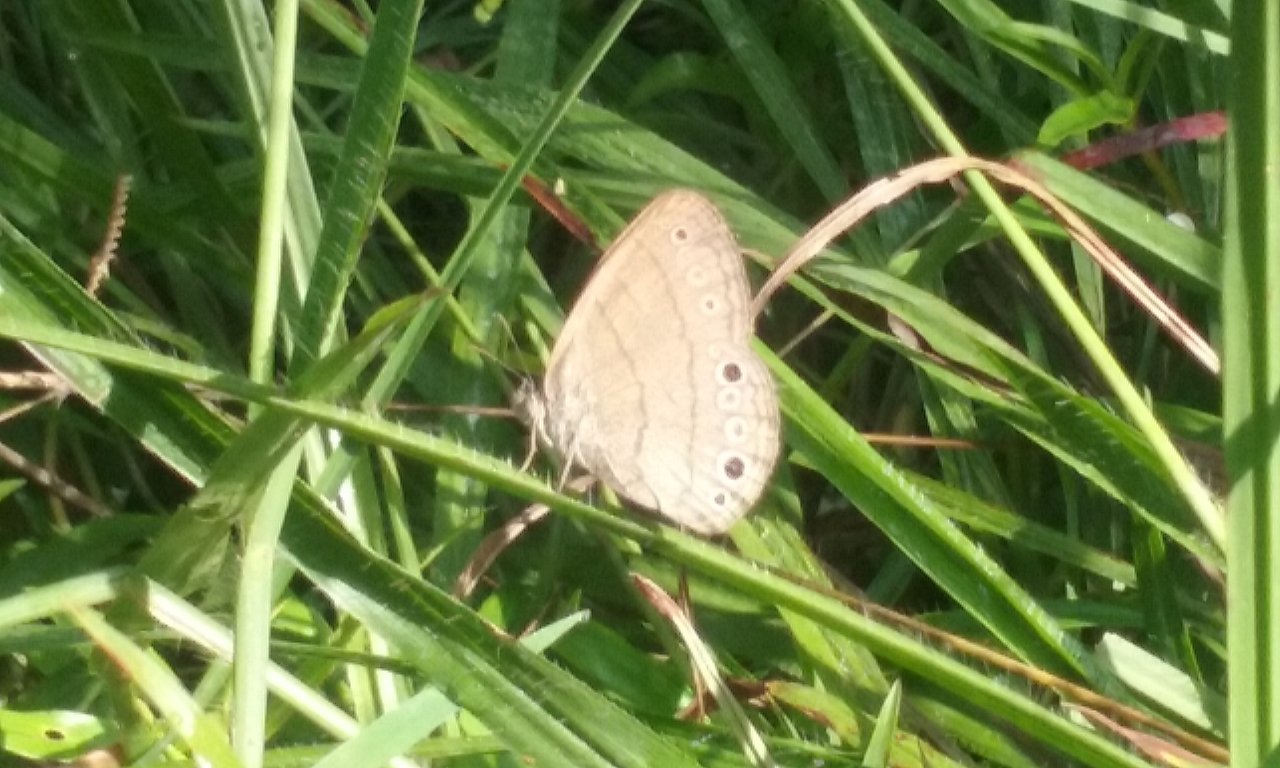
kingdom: Animalia
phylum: Arthropoda
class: Insecta
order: Lepidoptera
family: Nymphalidae
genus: Hermeuptychia
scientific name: Hermeuptychia hermes
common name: Carolina Satyr
